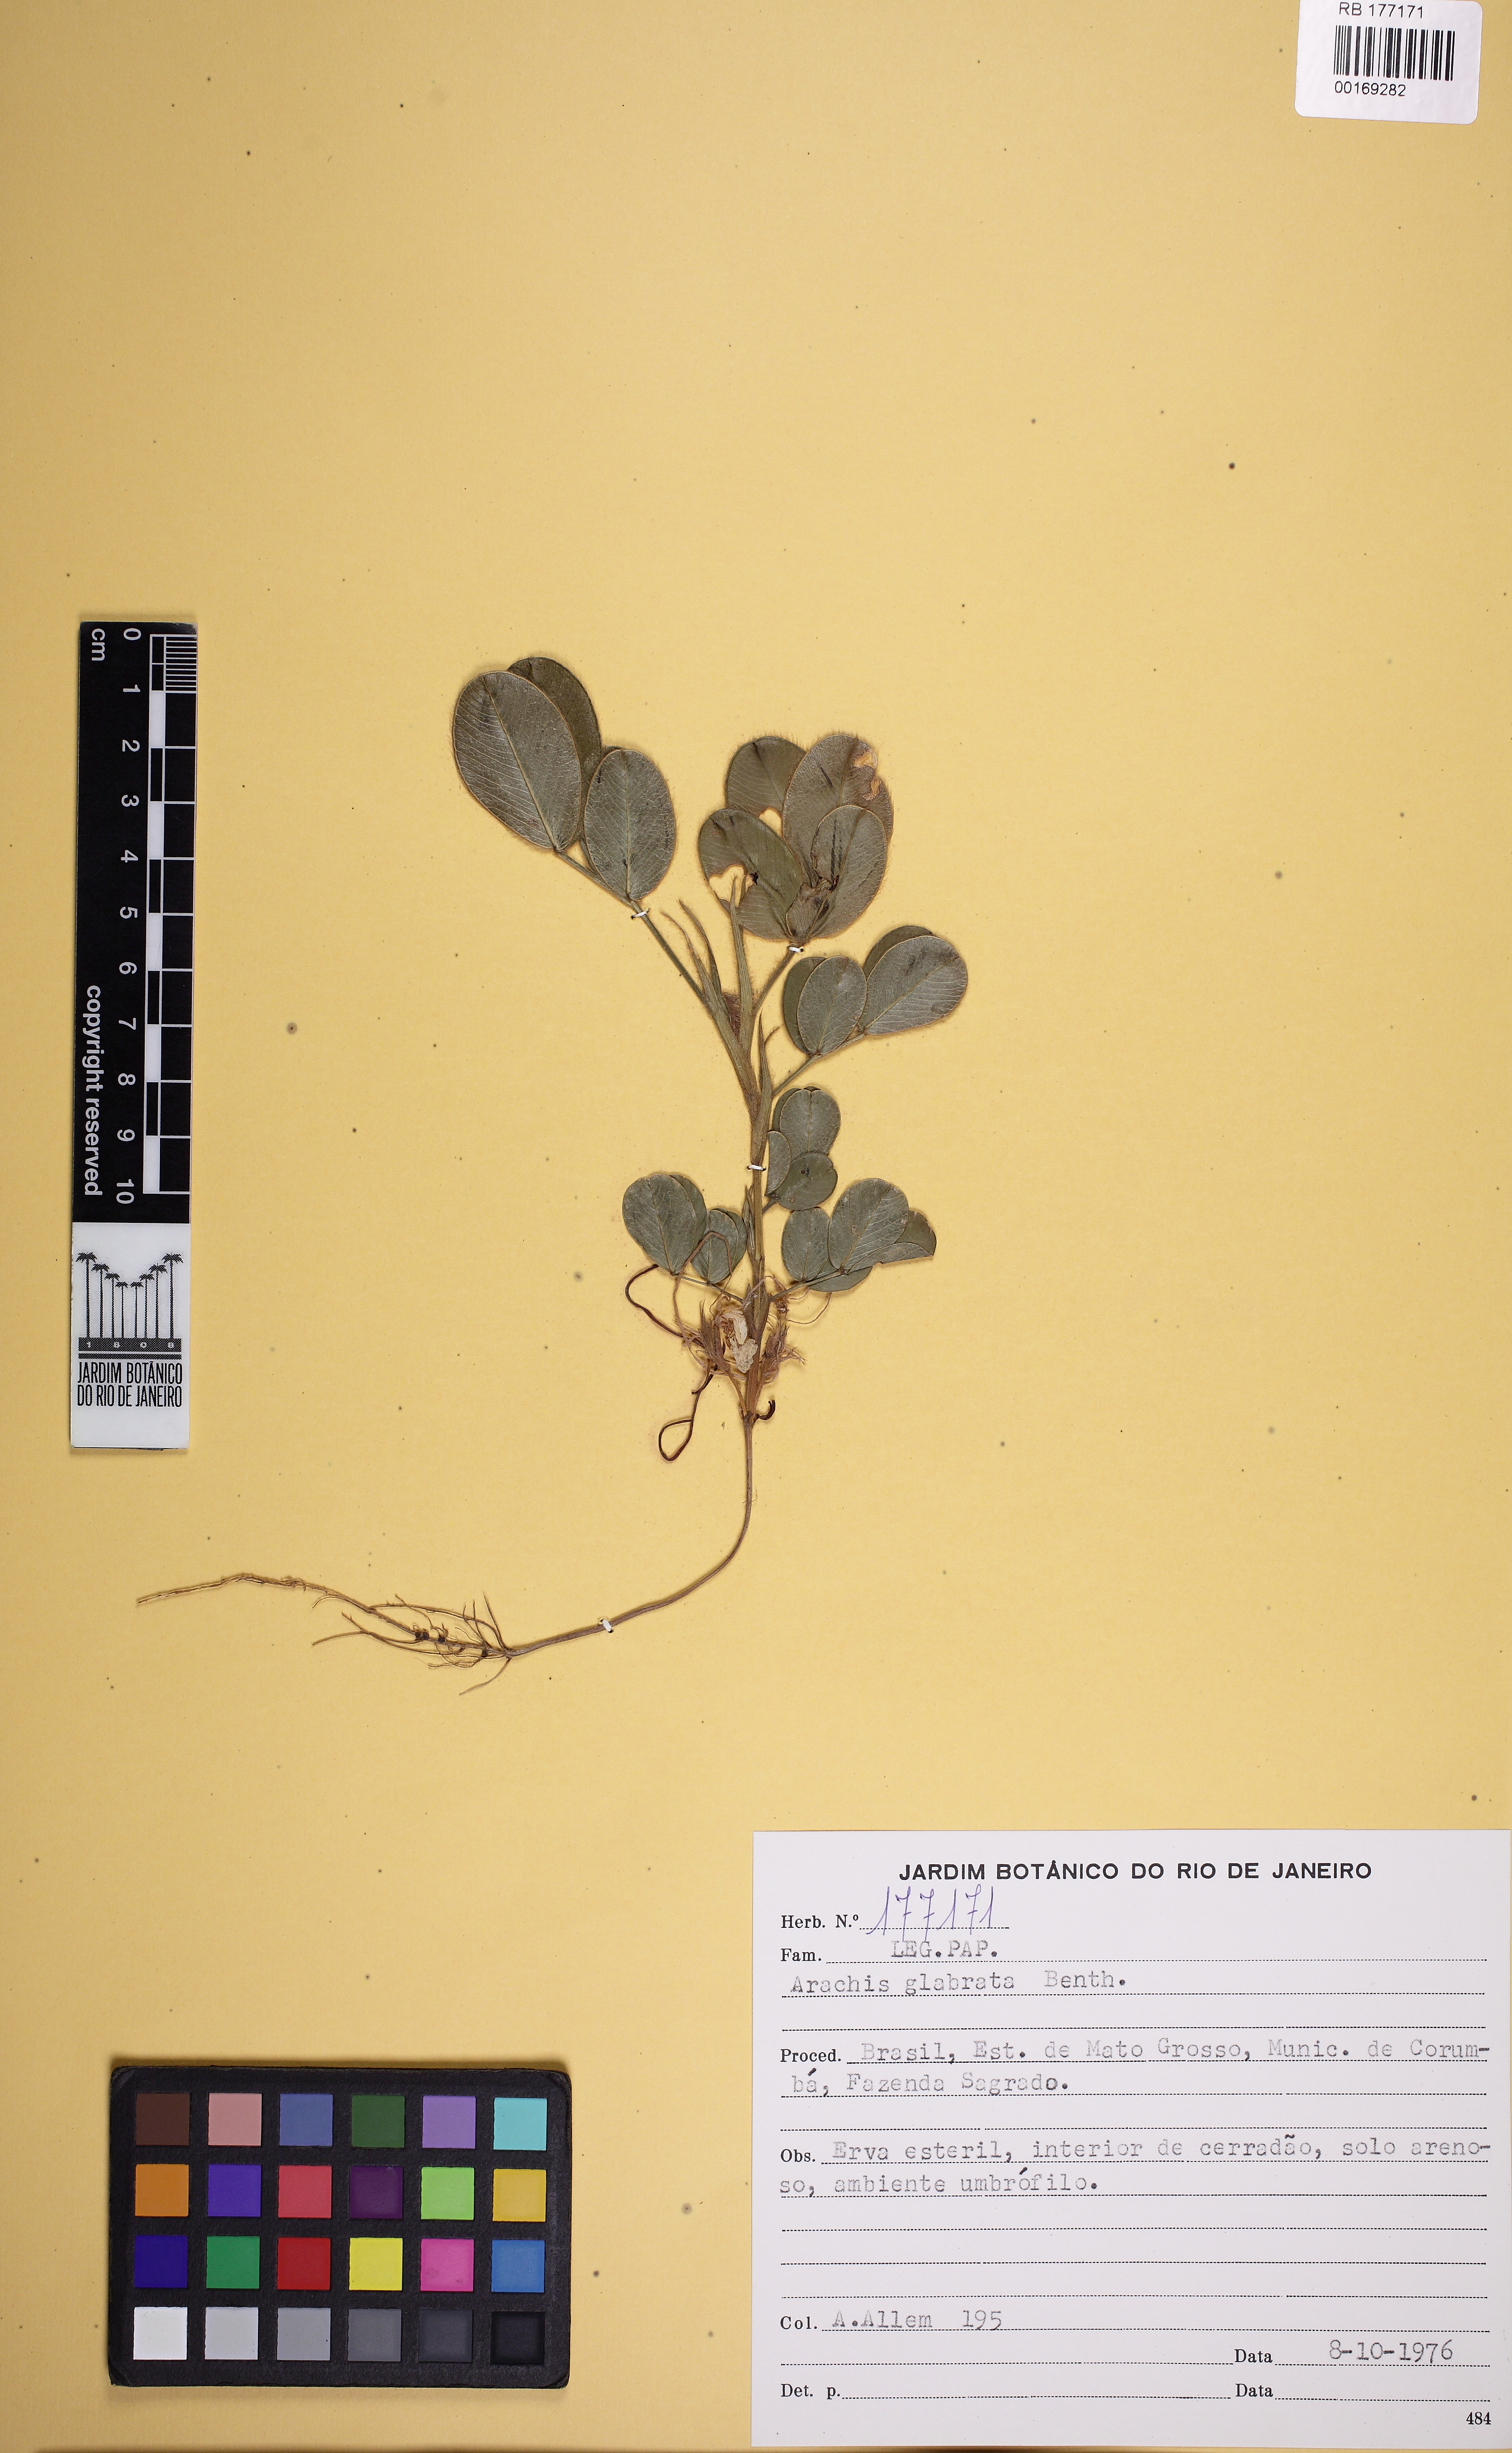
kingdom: Plantae
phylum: Tracheophyta
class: Magnoliopsida
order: Fabales
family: Fabaceae
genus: Arachis
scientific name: Arachis glabrata
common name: Rhizoma peanut
